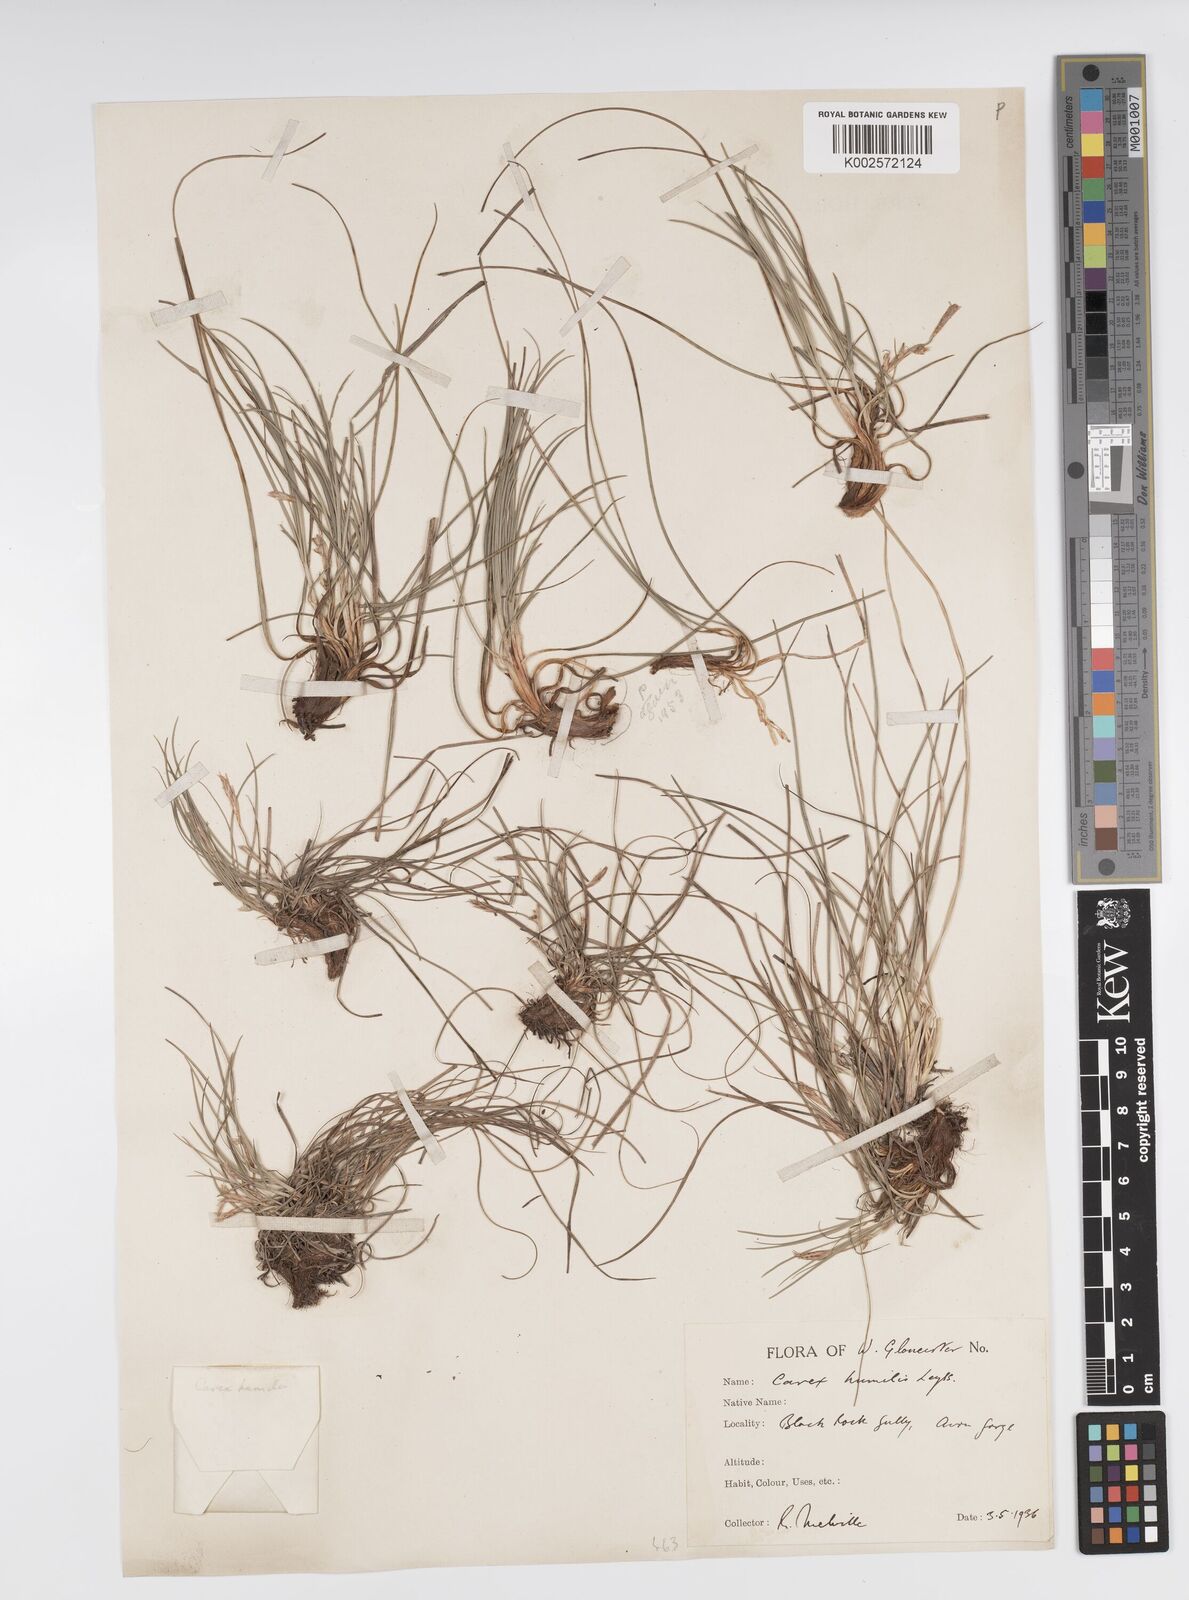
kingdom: Plantae
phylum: Tracheophyta
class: Liliopsida
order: Poales
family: Cyperaceae
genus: Carex
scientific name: Carex humilis
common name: Dwarf sedge
